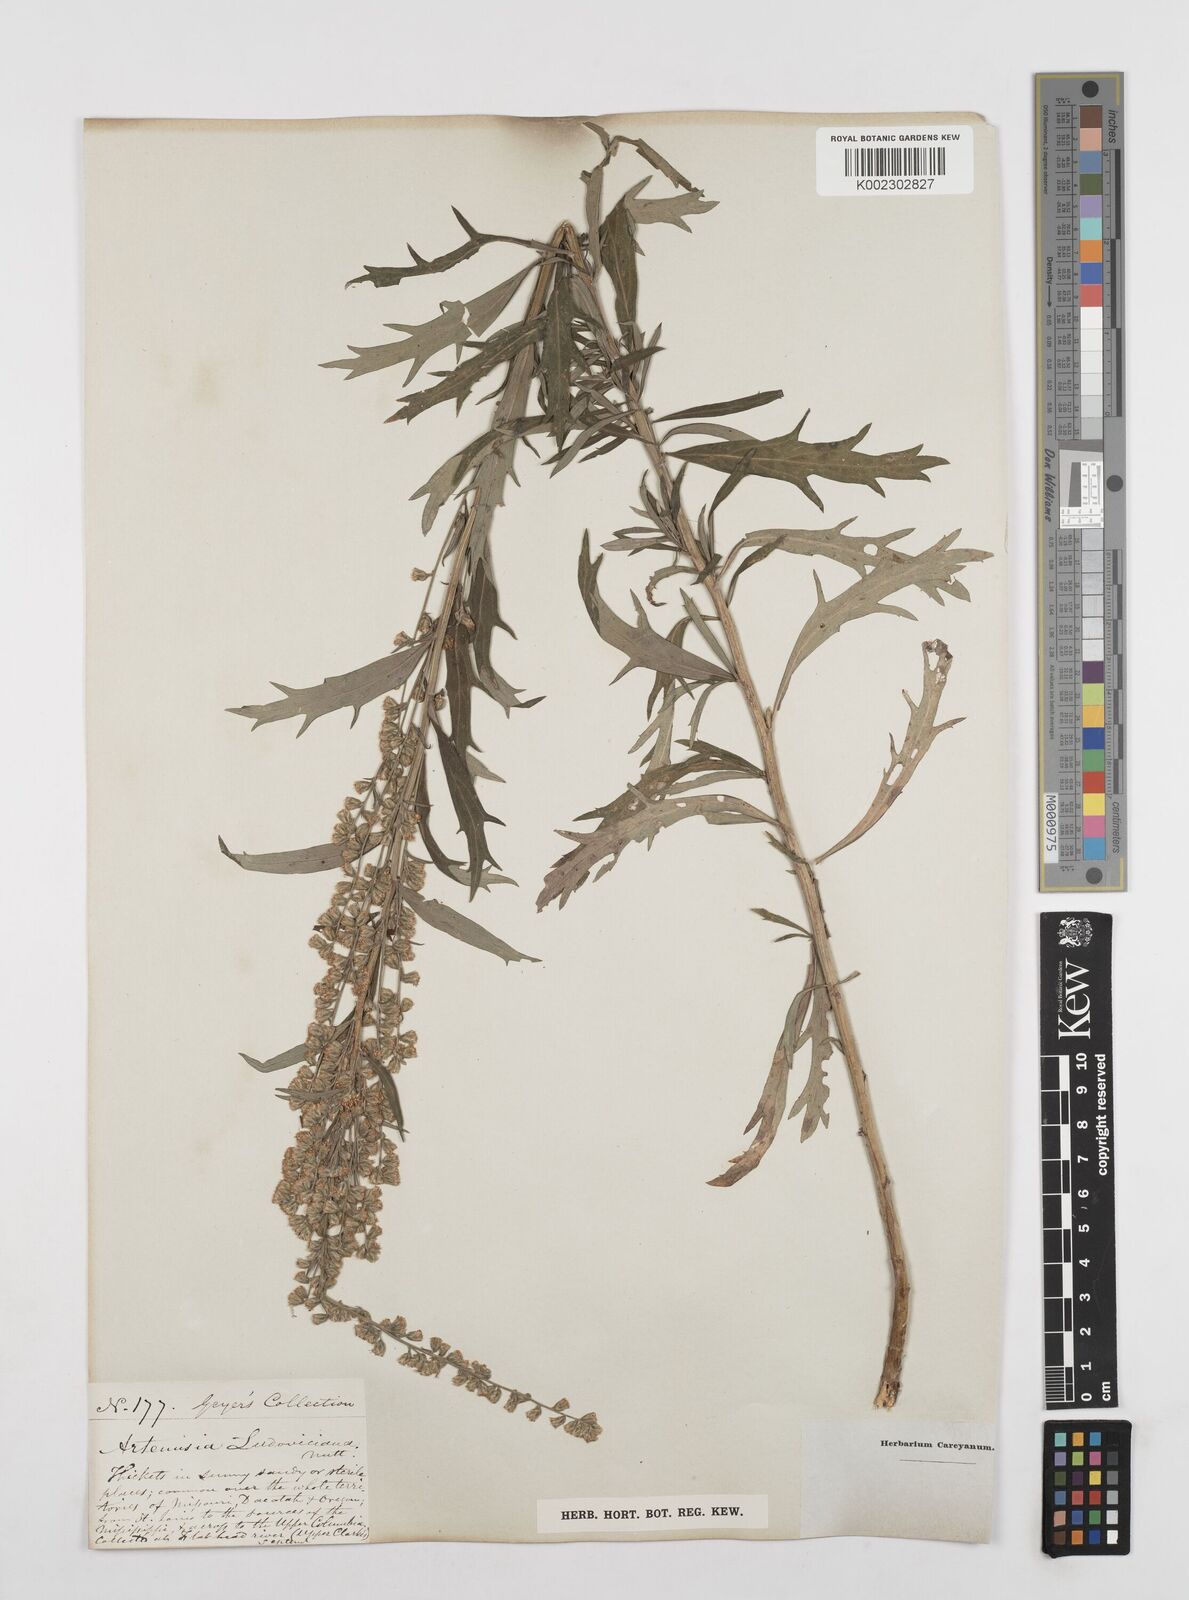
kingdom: Plantae
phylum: Tracheophyta
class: Magnoliopsida
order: Asterales
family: Asteraceae
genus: Artemisia
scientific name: Artemisia ludoviciana
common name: Western mugwort
